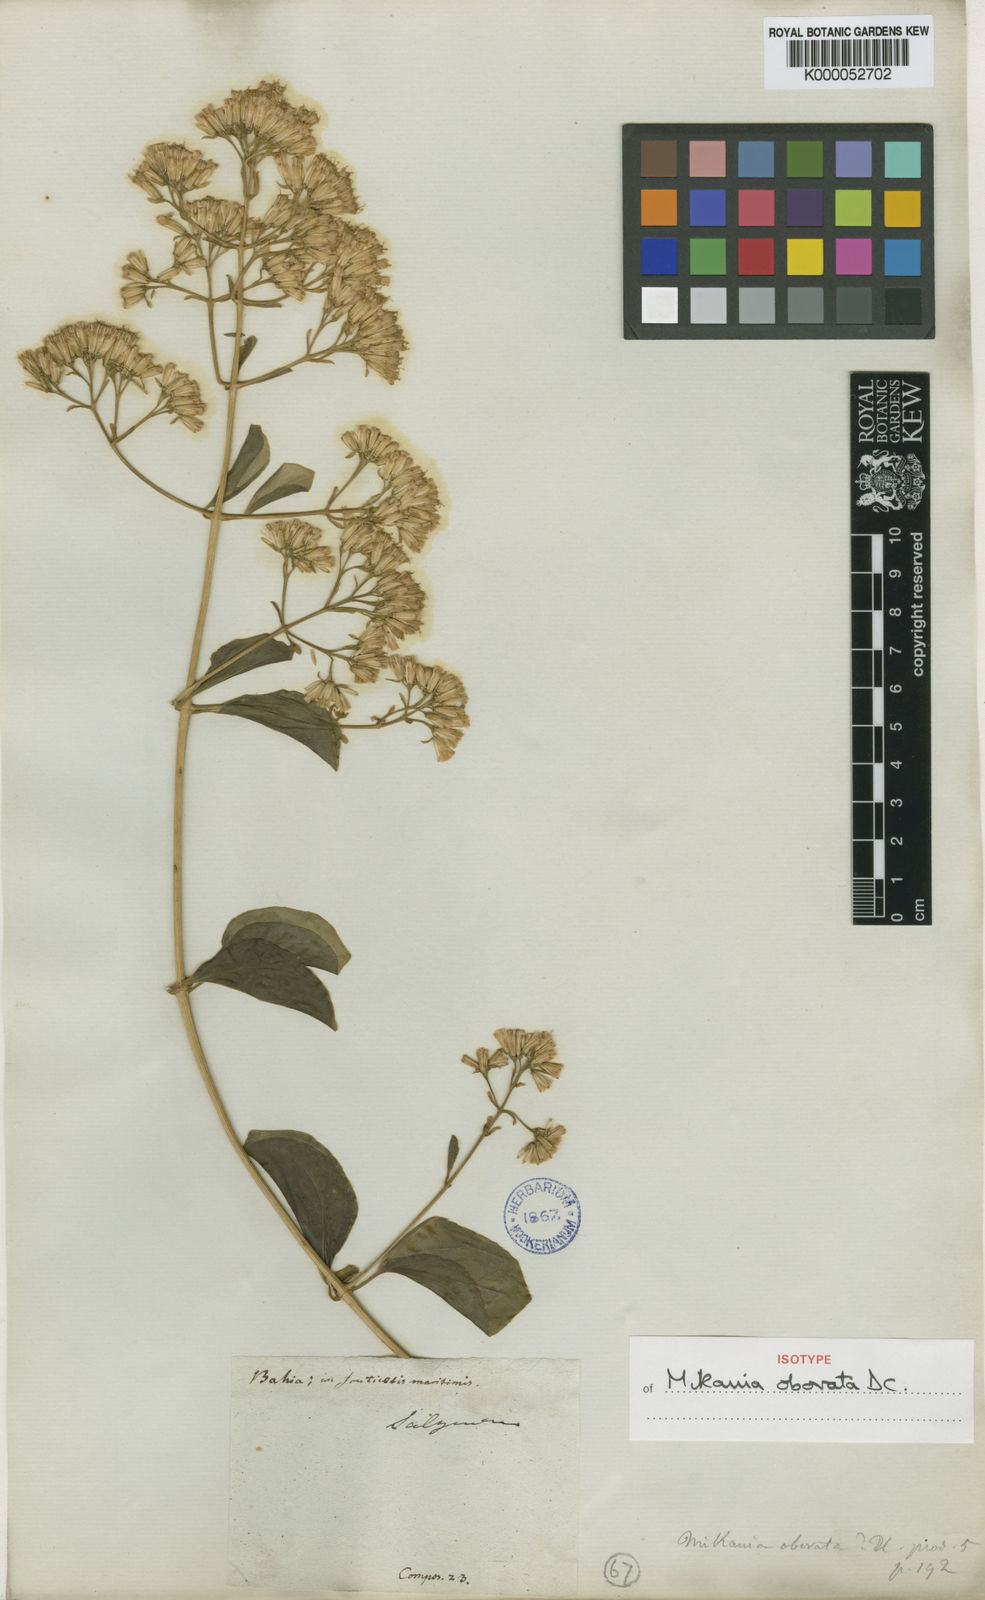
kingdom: Plantae
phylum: Tracheophyta
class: Magnoliopsida
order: Asterales
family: Asteraceae
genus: Mikania
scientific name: Mikania obovata
